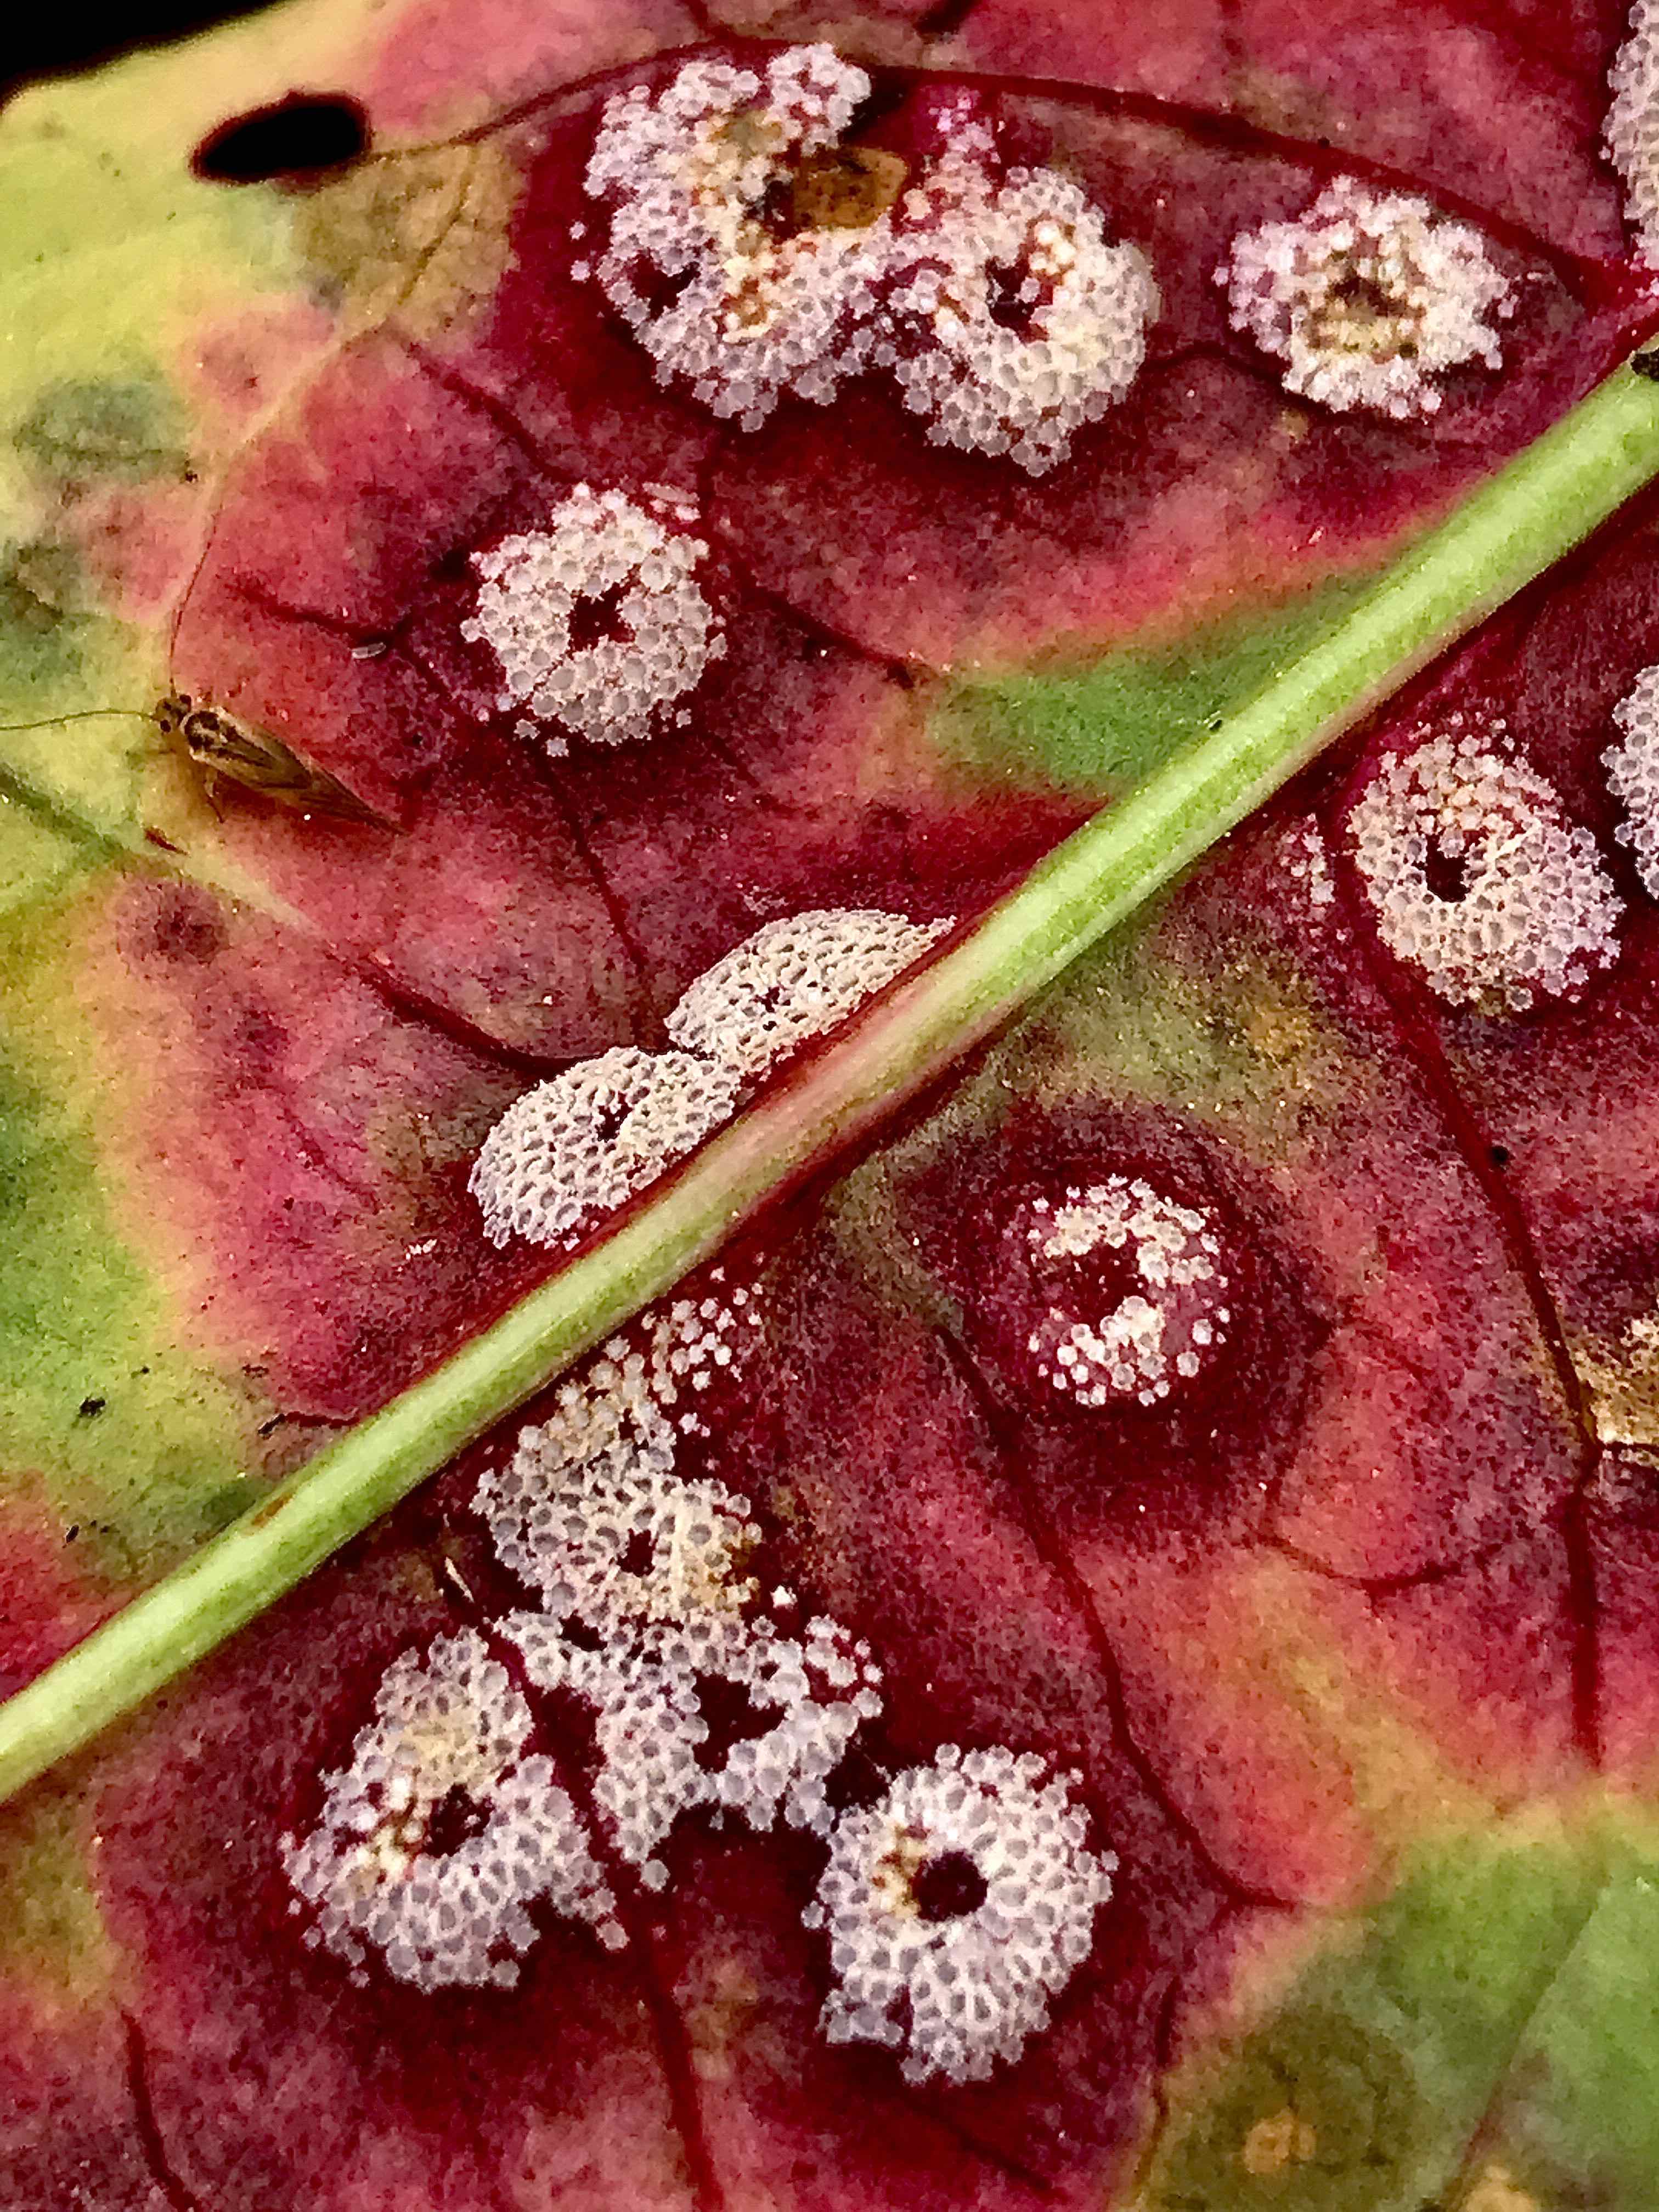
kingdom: Fungi
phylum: Basidiomycota
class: Pucciniomycetes
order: Pucciniales
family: Pucciniaceae
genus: Puccinia
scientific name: Puccinia phragmitis
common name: tagrør-tvecellerust
